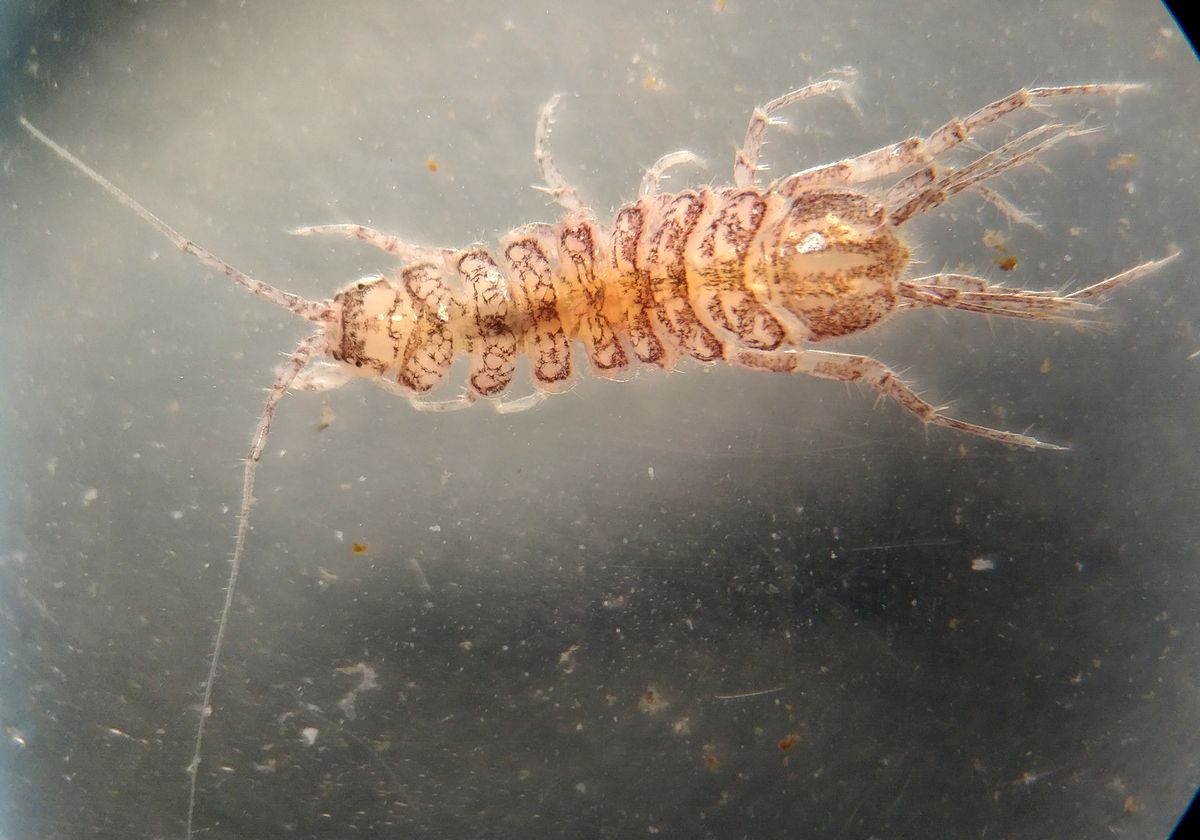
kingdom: Animalia
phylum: Arthropoda
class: Malacostraca
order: Isopoda
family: Asellidae
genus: Asellus
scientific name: Asellus aquaticus
